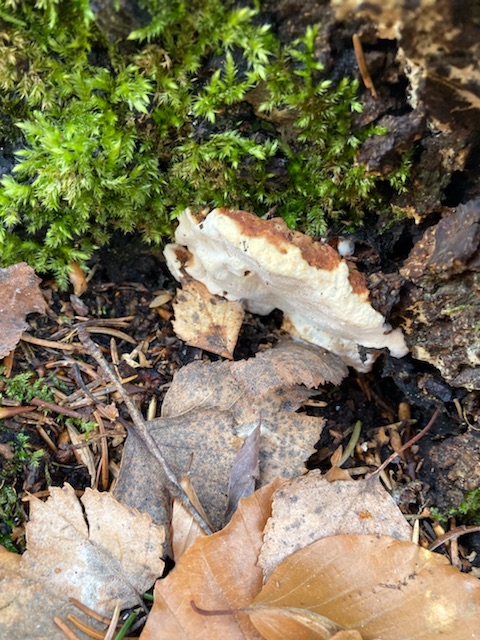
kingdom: Fungi
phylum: Basidiomycota
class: Agaricomycetes
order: Russulales
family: Bondarzewiaceae
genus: Heterobasidion
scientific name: Heterobasidion annosum
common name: almindelig rodfordærver
